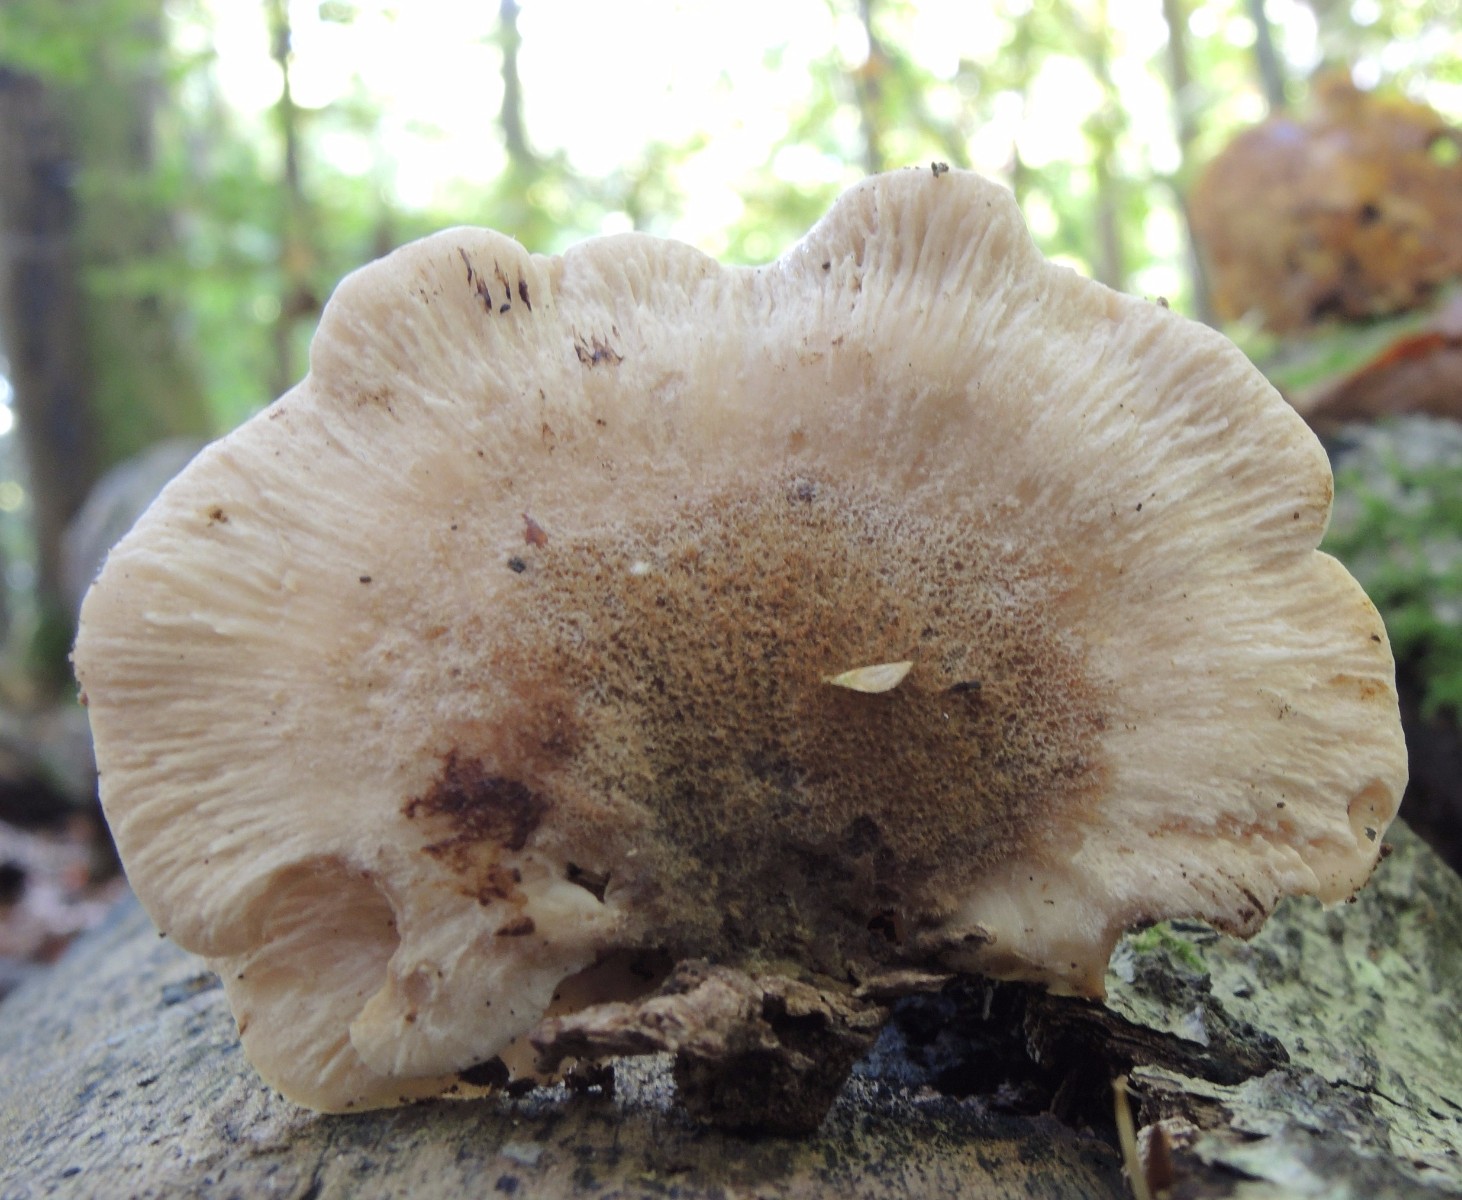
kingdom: Fungi
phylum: Basidiomycota
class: Agaricomycetes
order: Russulales
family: Auriscalpiaceae
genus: Lentinellus
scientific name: Lentinellus ursinus
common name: børstehåret savbladhat
